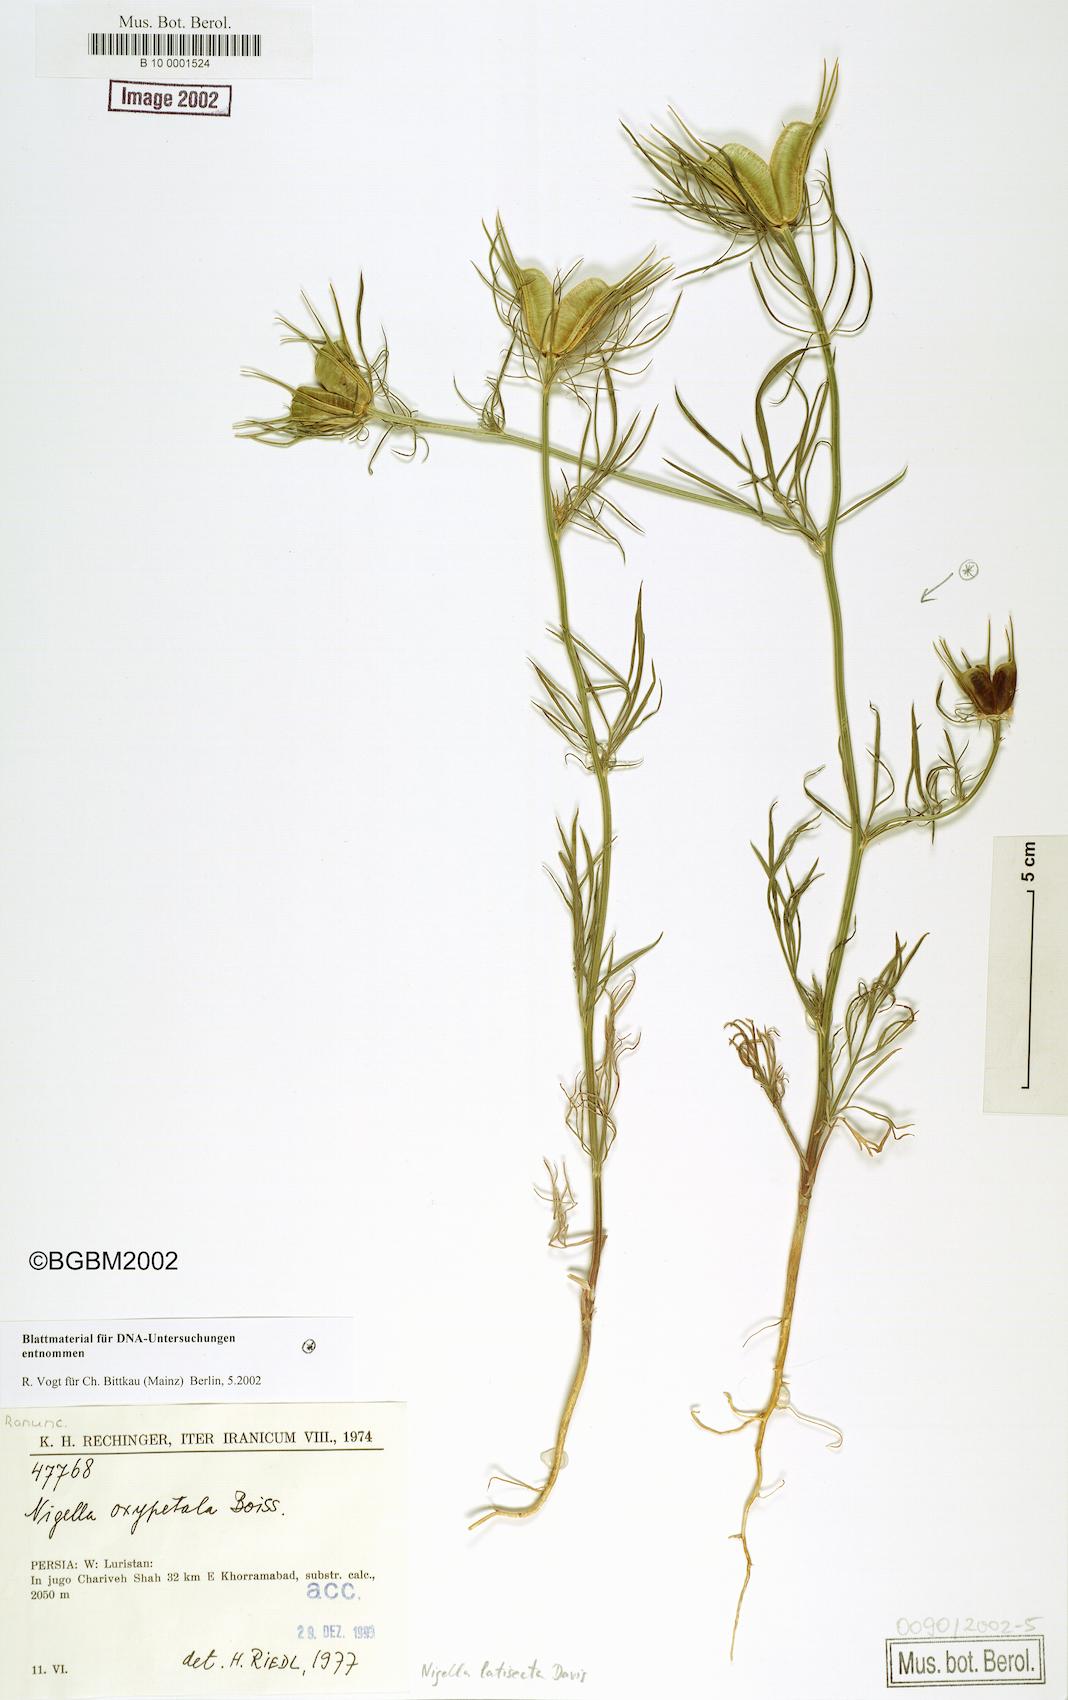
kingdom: Plantae
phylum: Tracheophyta
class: Magnoliopsida
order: Ranunculales
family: Ranunculaceae
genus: Nigella
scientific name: Nigella oxypetala
